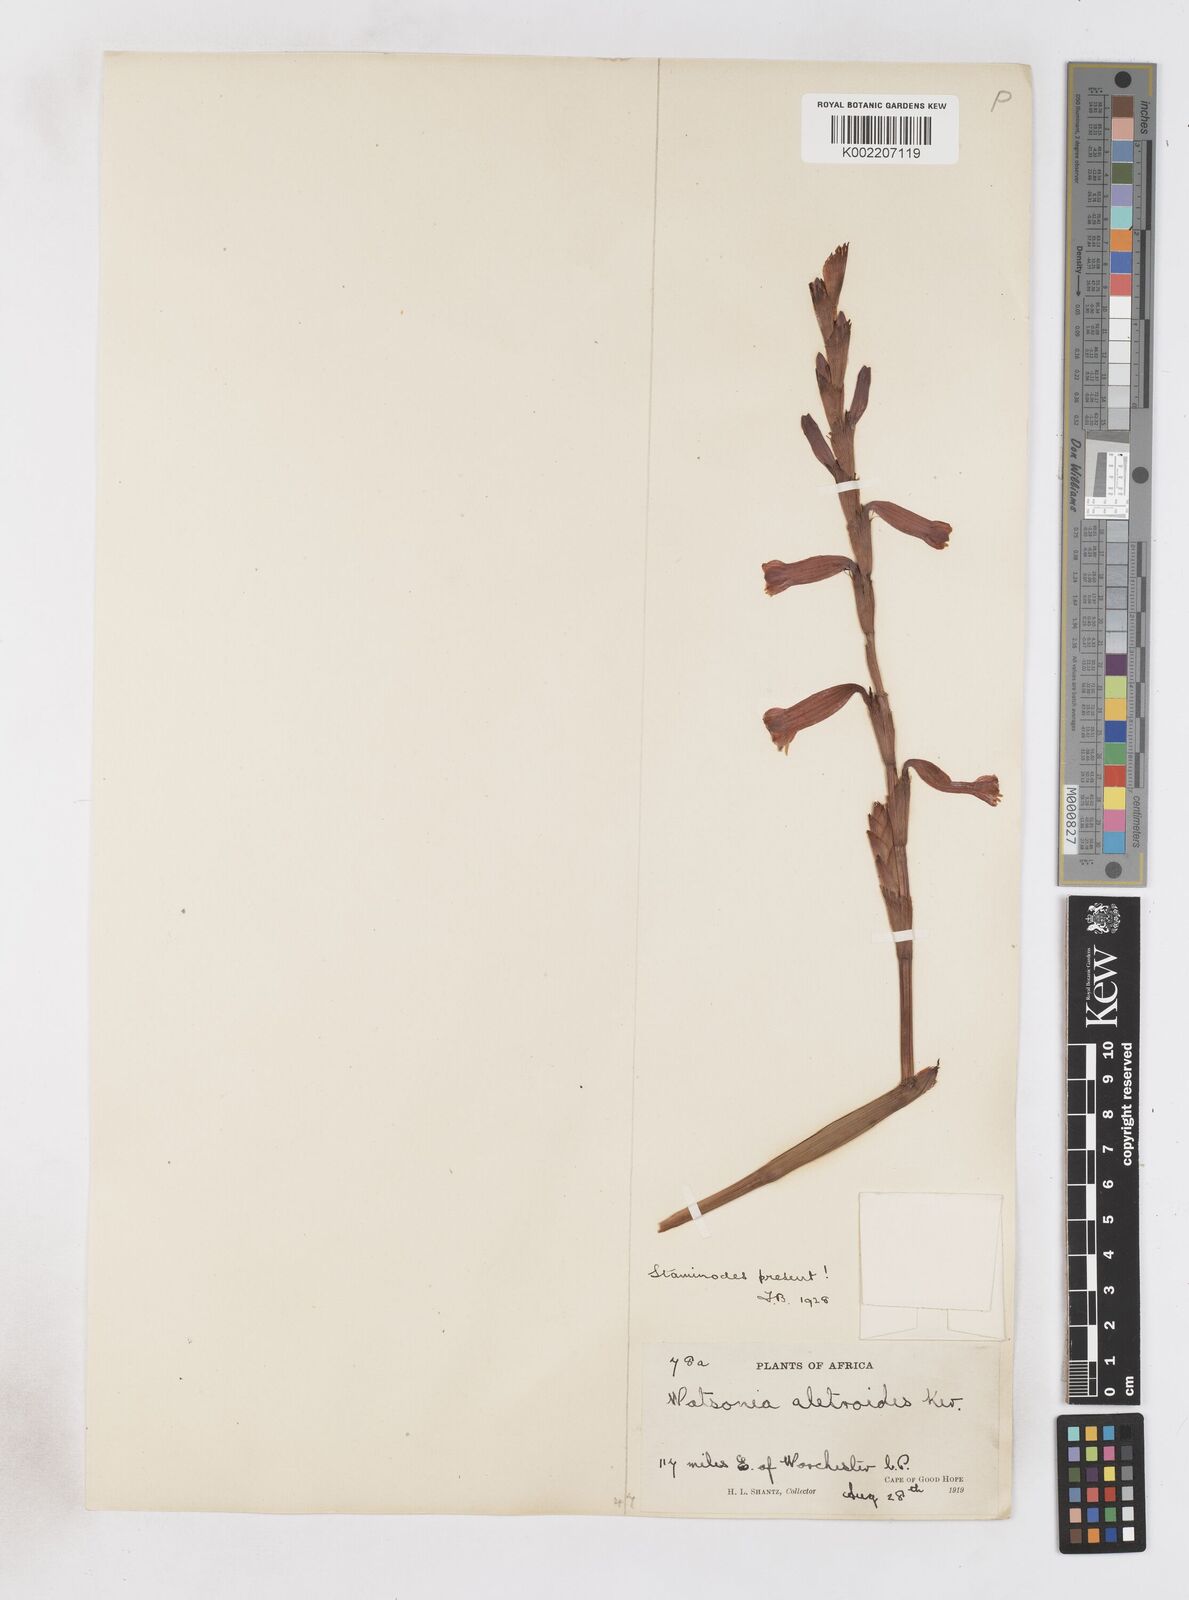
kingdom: Plantae
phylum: Tracheophyta
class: Liliopsida
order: Asparagales
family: Iridaceae
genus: Watsonia
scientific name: Watsonia aletroides
